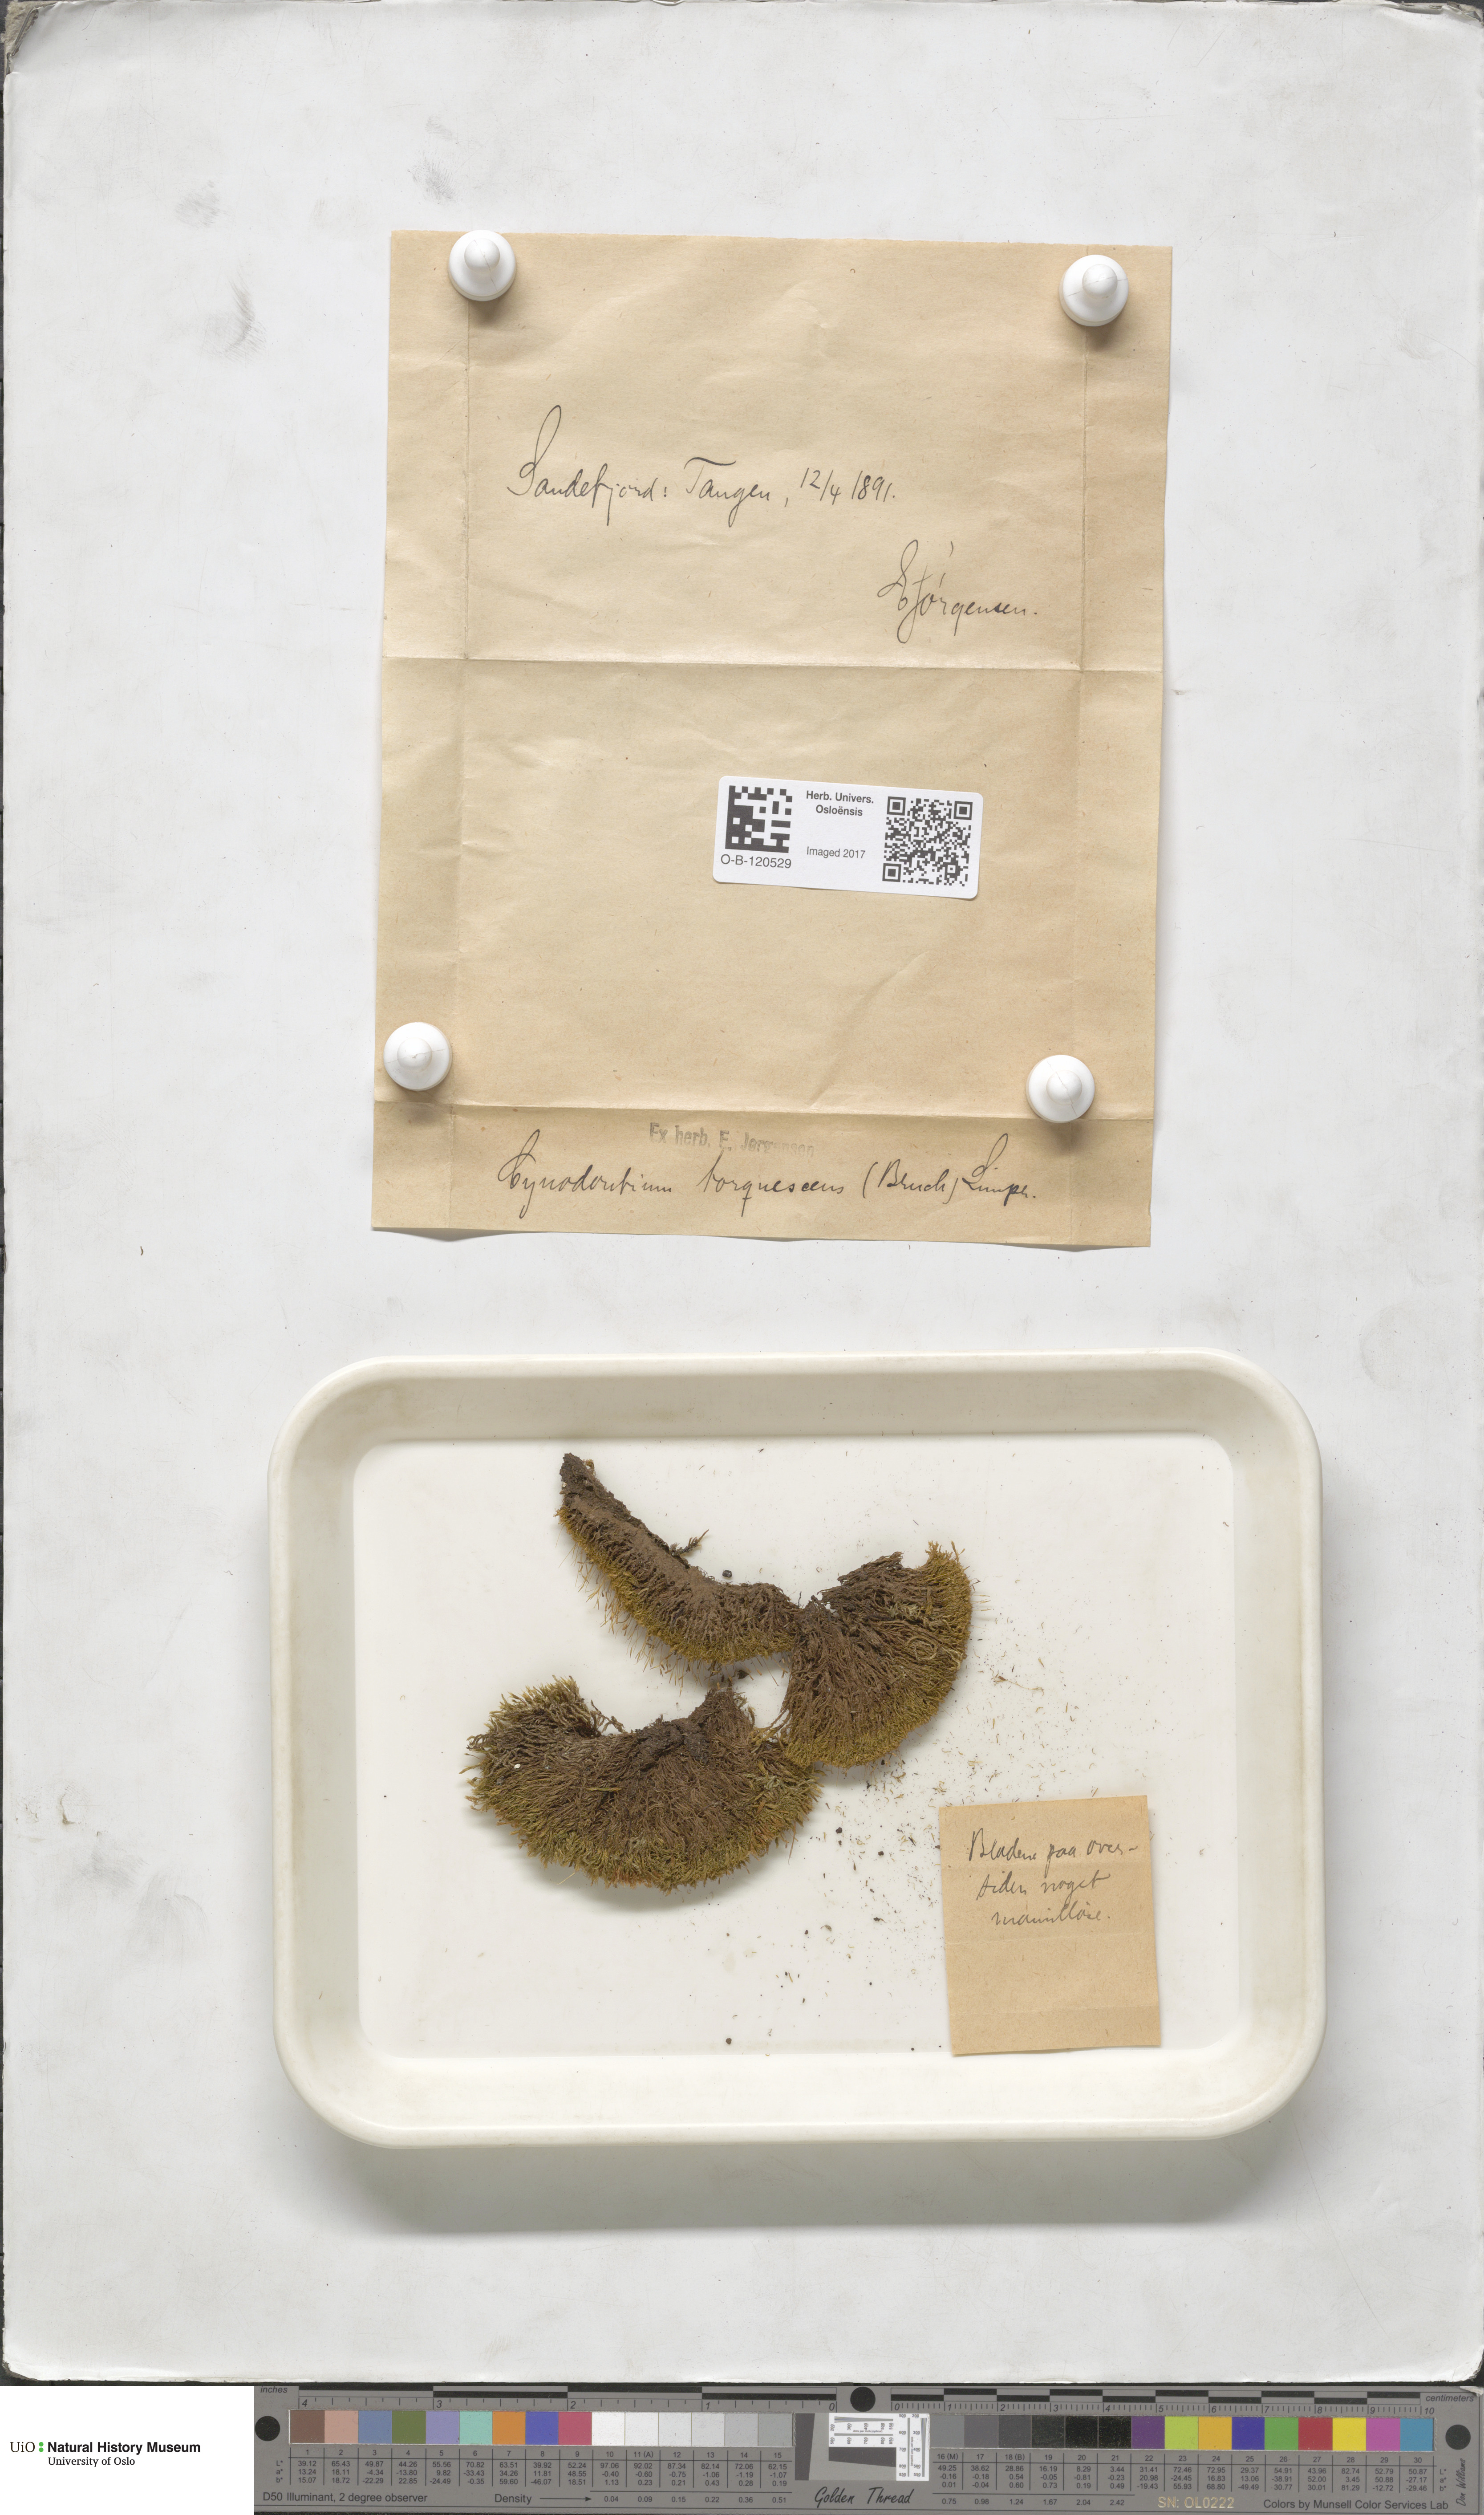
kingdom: Plantae
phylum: Bryophyta
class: Bryopsida
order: Dicranales
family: Rhabdoweisiaceae
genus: Cynodontium
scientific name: Cynodontium tenellum
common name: Delicate dogtooth moss
